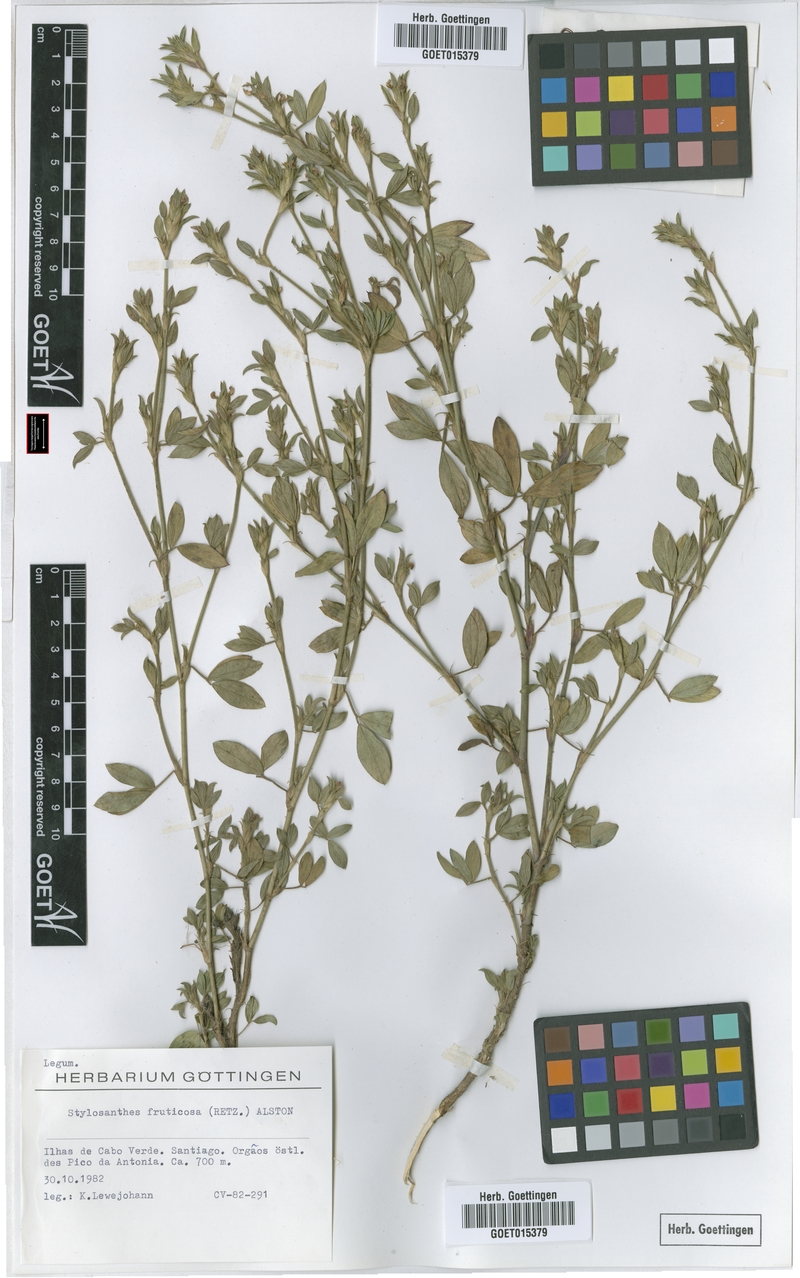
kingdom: Plantae
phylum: Tracheophyta
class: Magnoliopsida
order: Fabales
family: Fabaceae
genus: Stylosanthes
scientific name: Stylosanthes fruticosa
